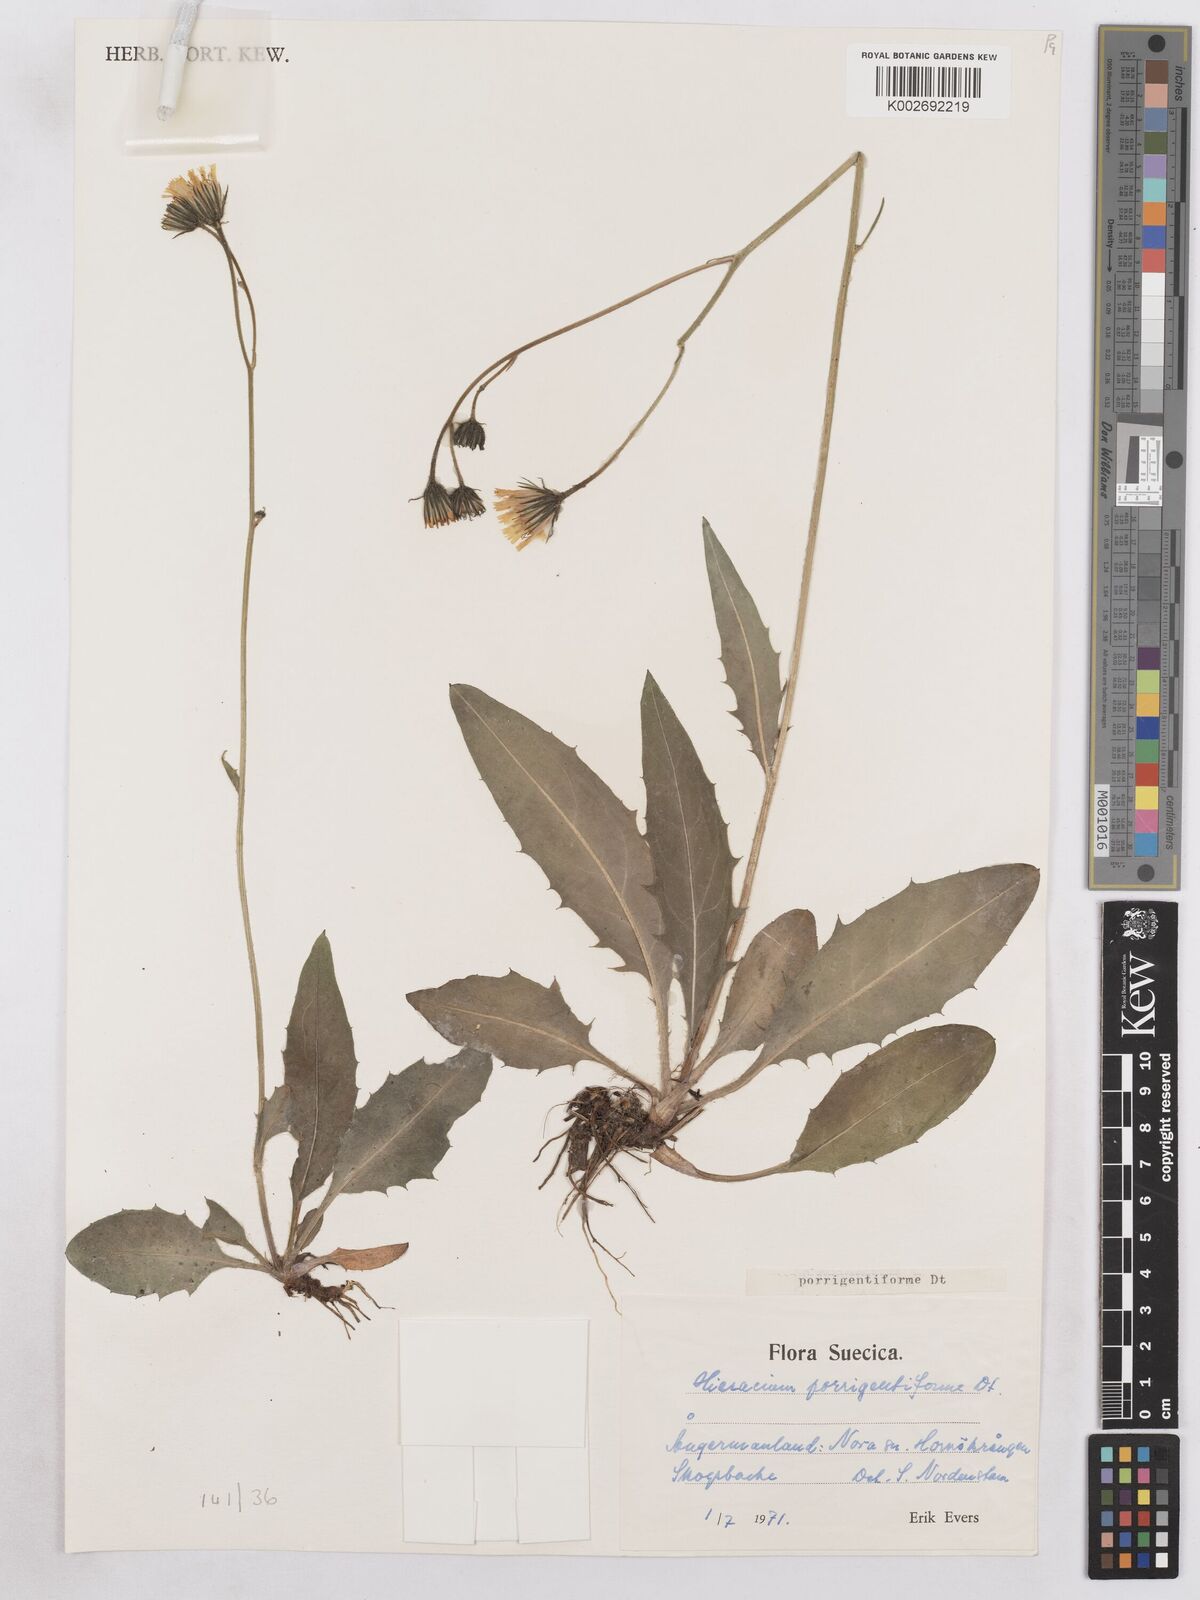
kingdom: Plantae
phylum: Tracheophyta
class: Magnoliopsida
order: Asterales
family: Asteraceae
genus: Hieracium
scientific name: Hieracium diaphanoides
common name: Fine-bracted hawkweed
